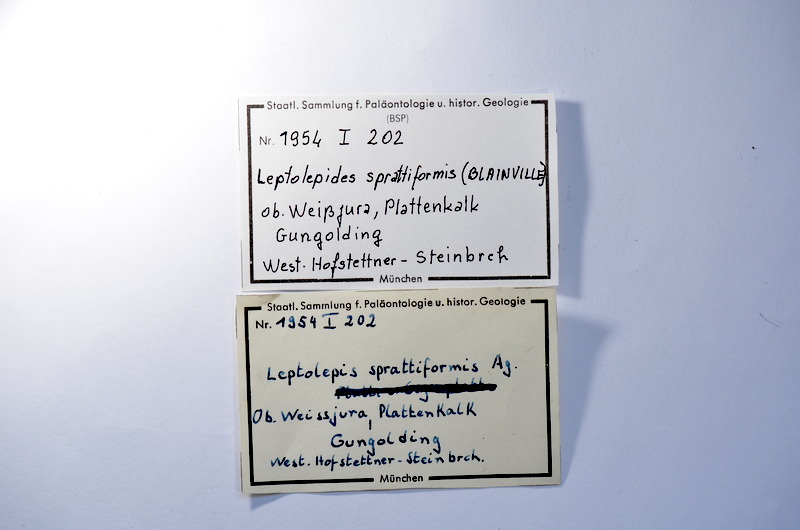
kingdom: Animalia
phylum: Chordata
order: Salmoniformes
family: Orthogonikleithridae
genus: Leptolepides
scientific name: Leptolepides sprattiformis
